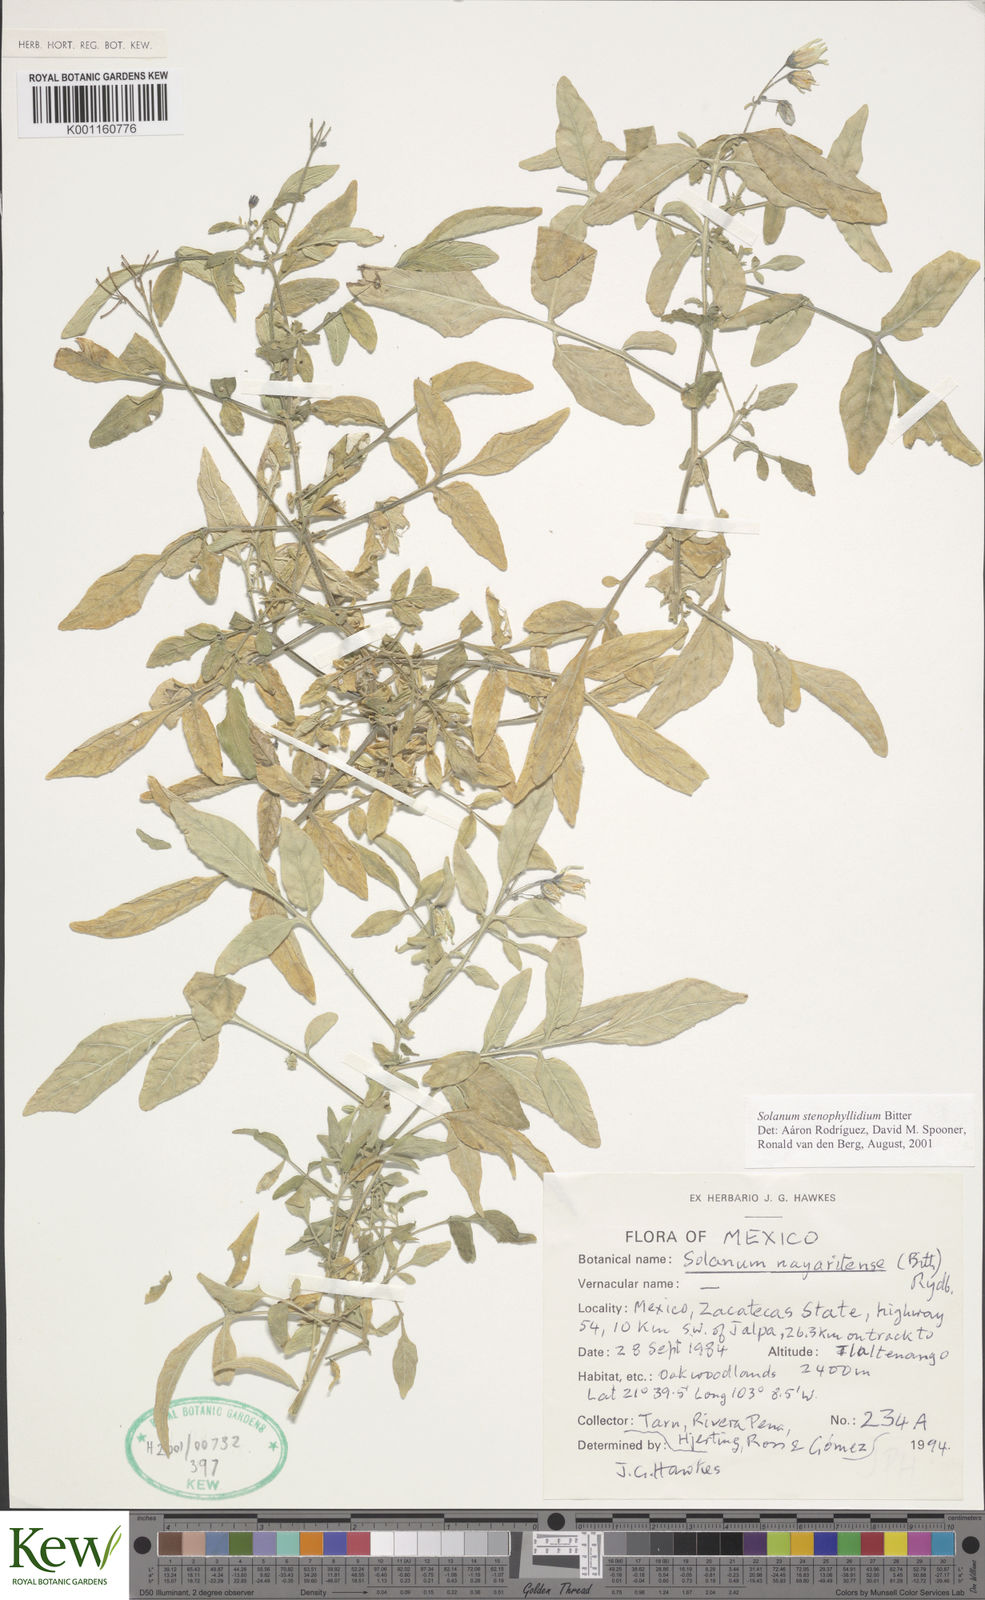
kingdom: Plantae
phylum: Tracheophyta
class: Magnoliopsida
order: Solanales
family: Solanaceae
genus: Solanum
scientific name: Solanum stenophyllidium
